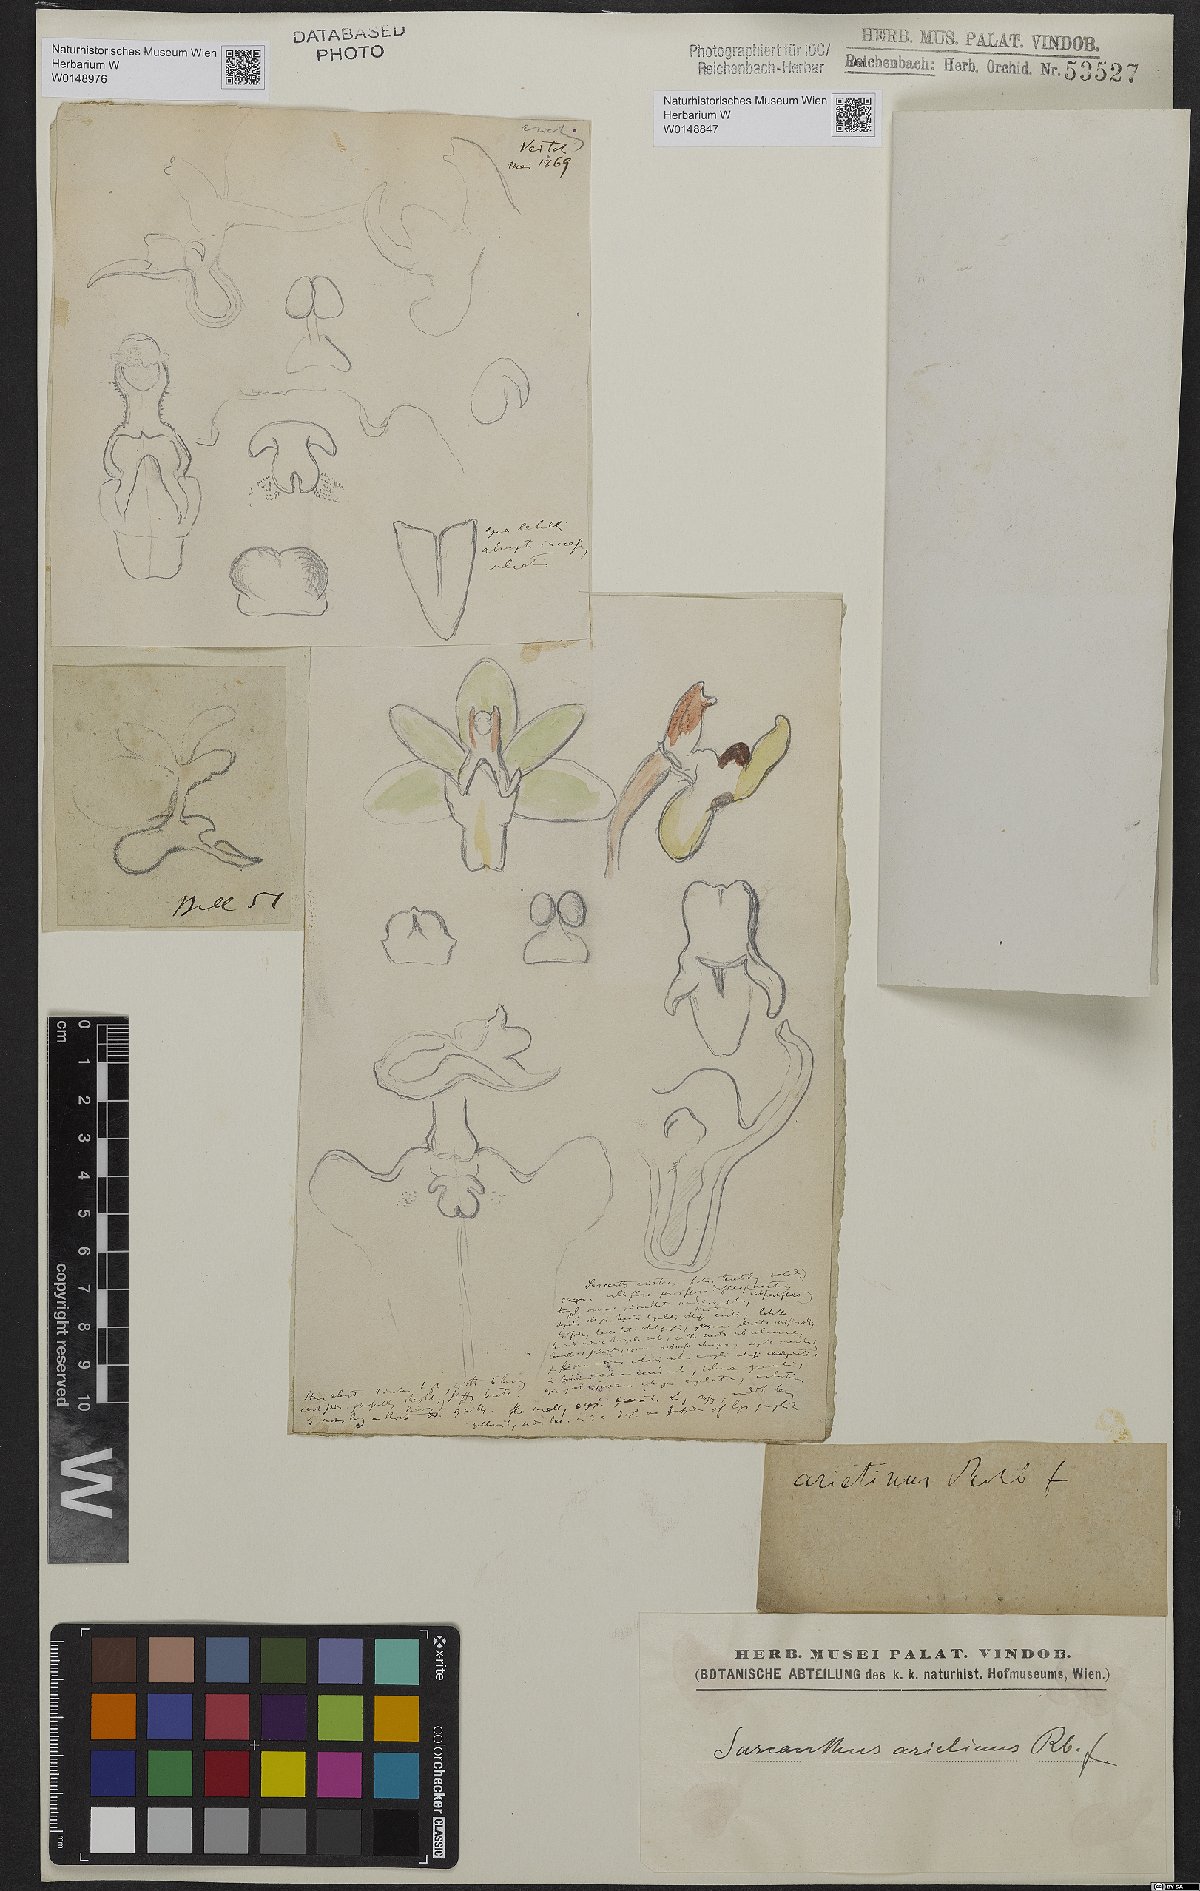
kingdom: Plantae
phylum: Tracheophyta
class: Liliopsida
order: Asparagales
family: Orchidaceae
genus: Cleisostoma
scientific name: Cleisostoma arietinum
